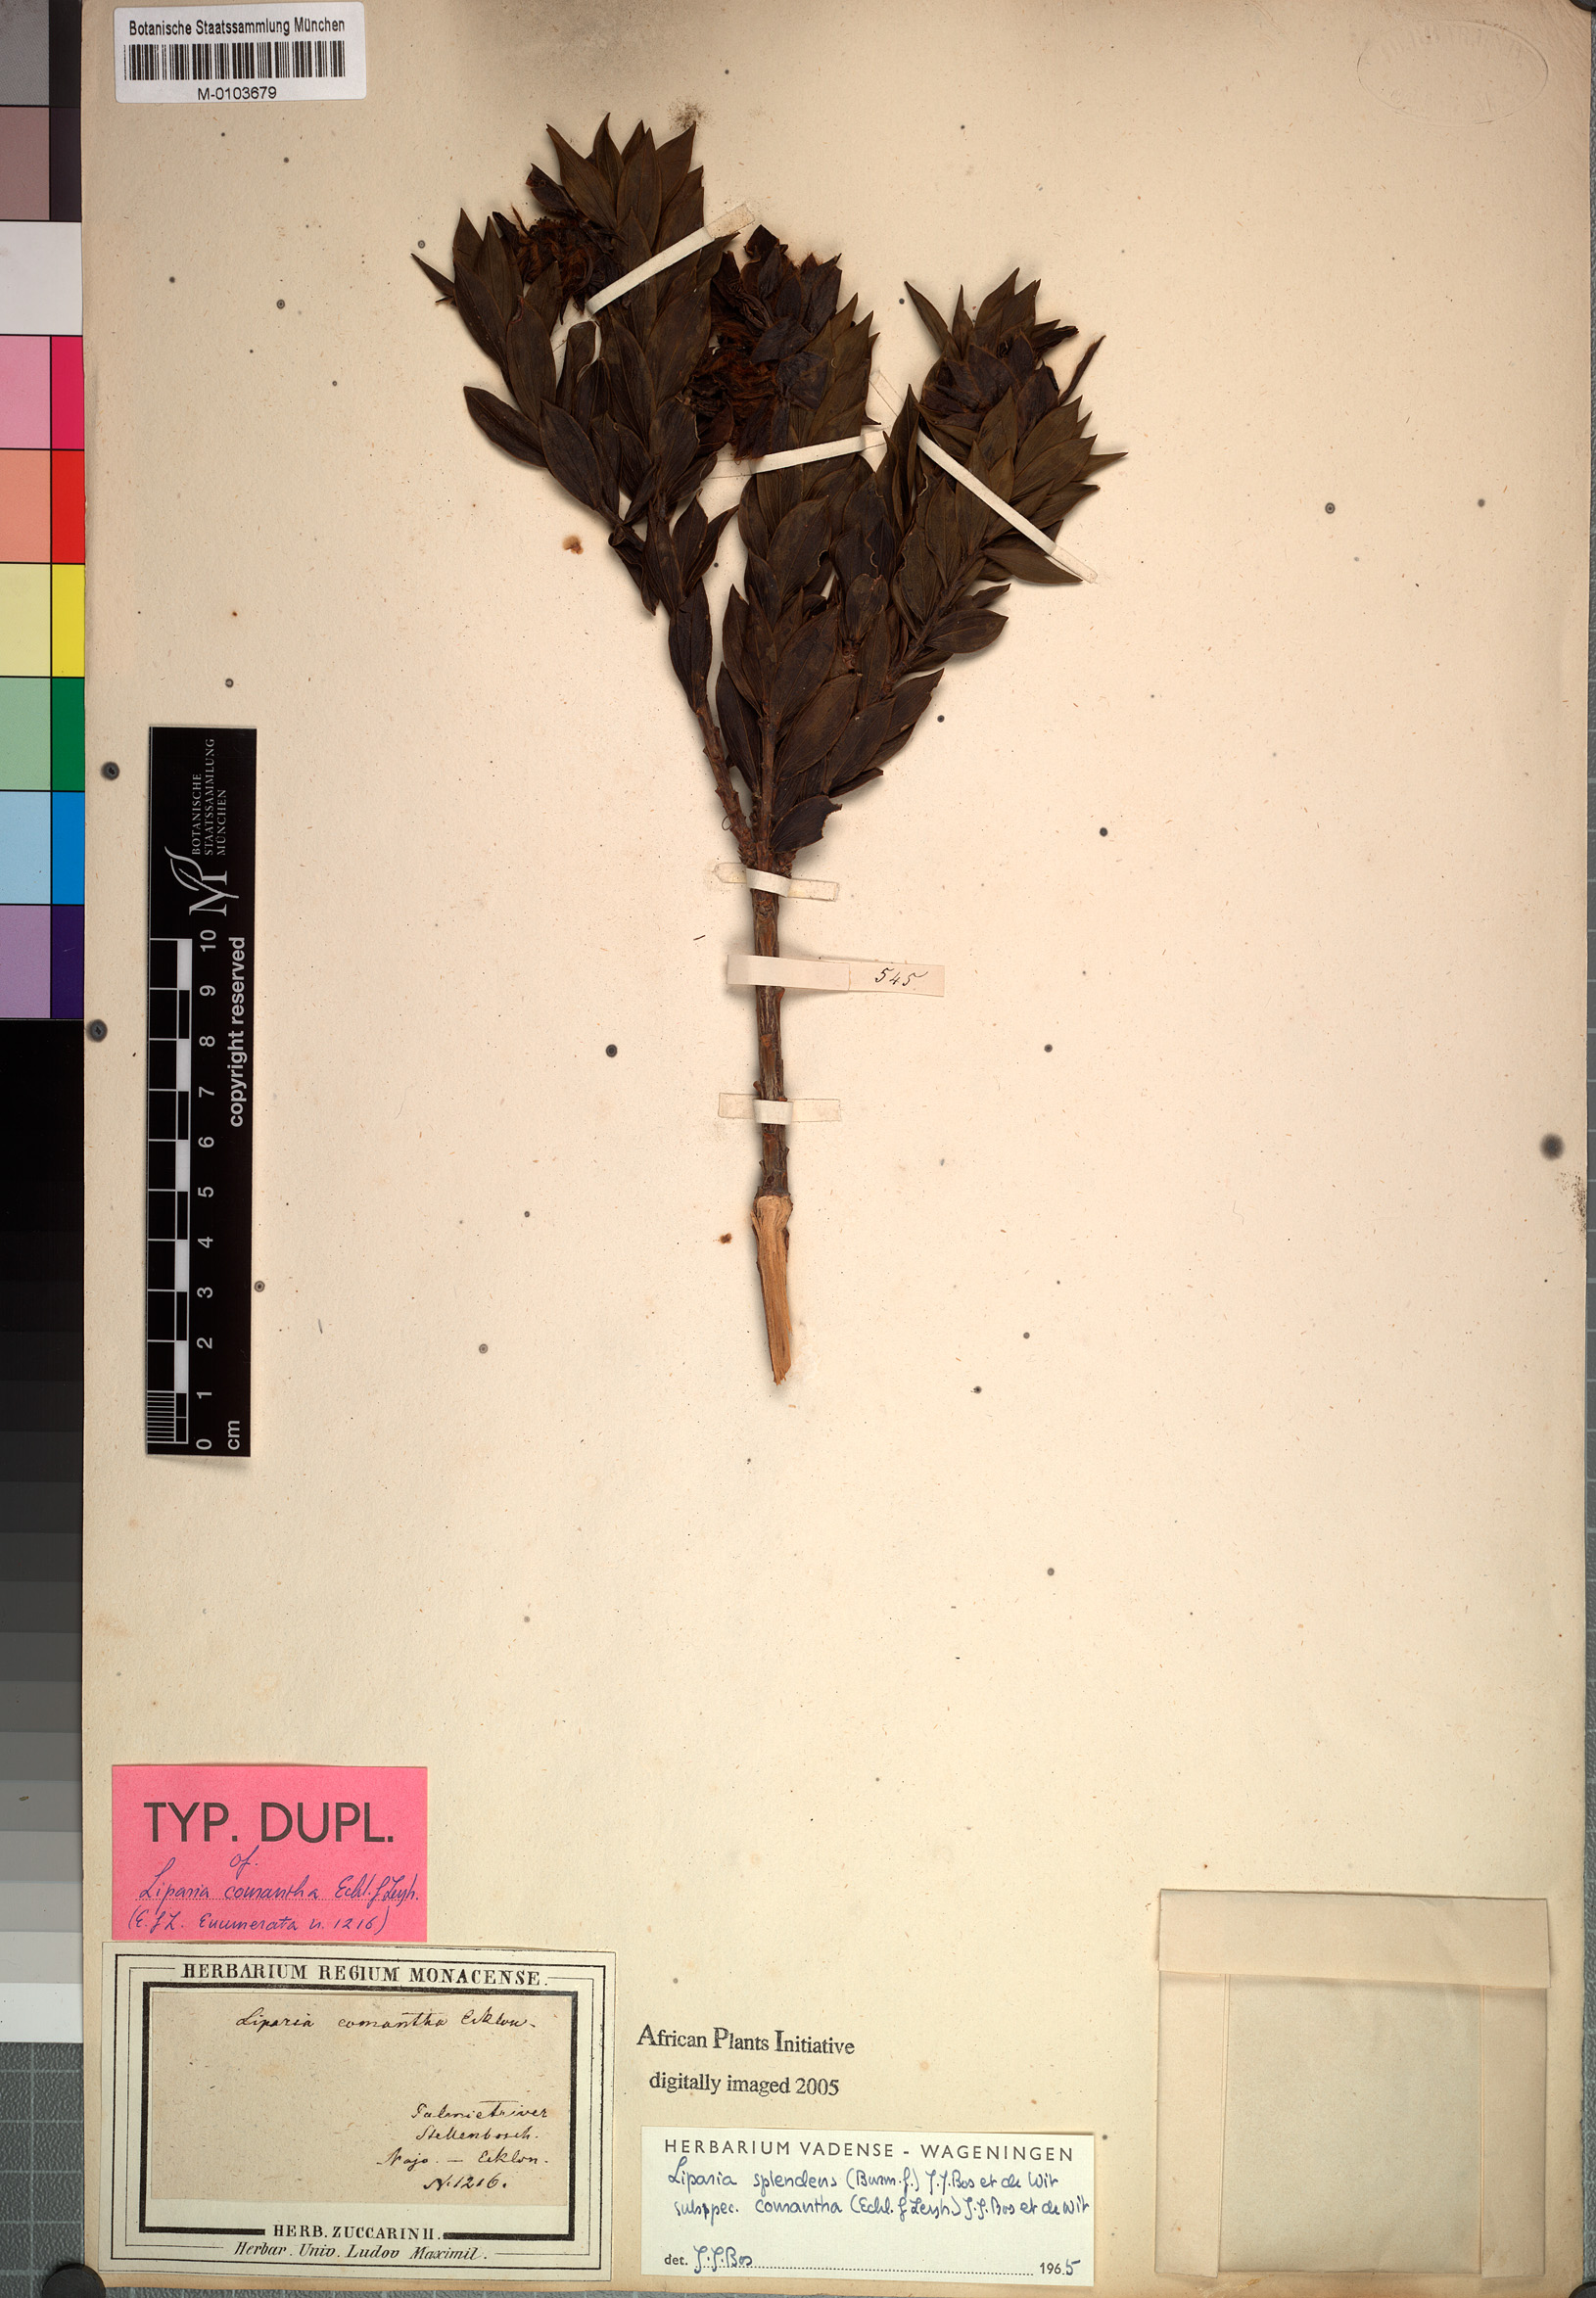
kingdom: Plantae
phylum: Tracheophyta
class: Magnoliopsida
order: Fabales
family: Fabaceae
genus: Liparia
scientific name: Liparia splendens
